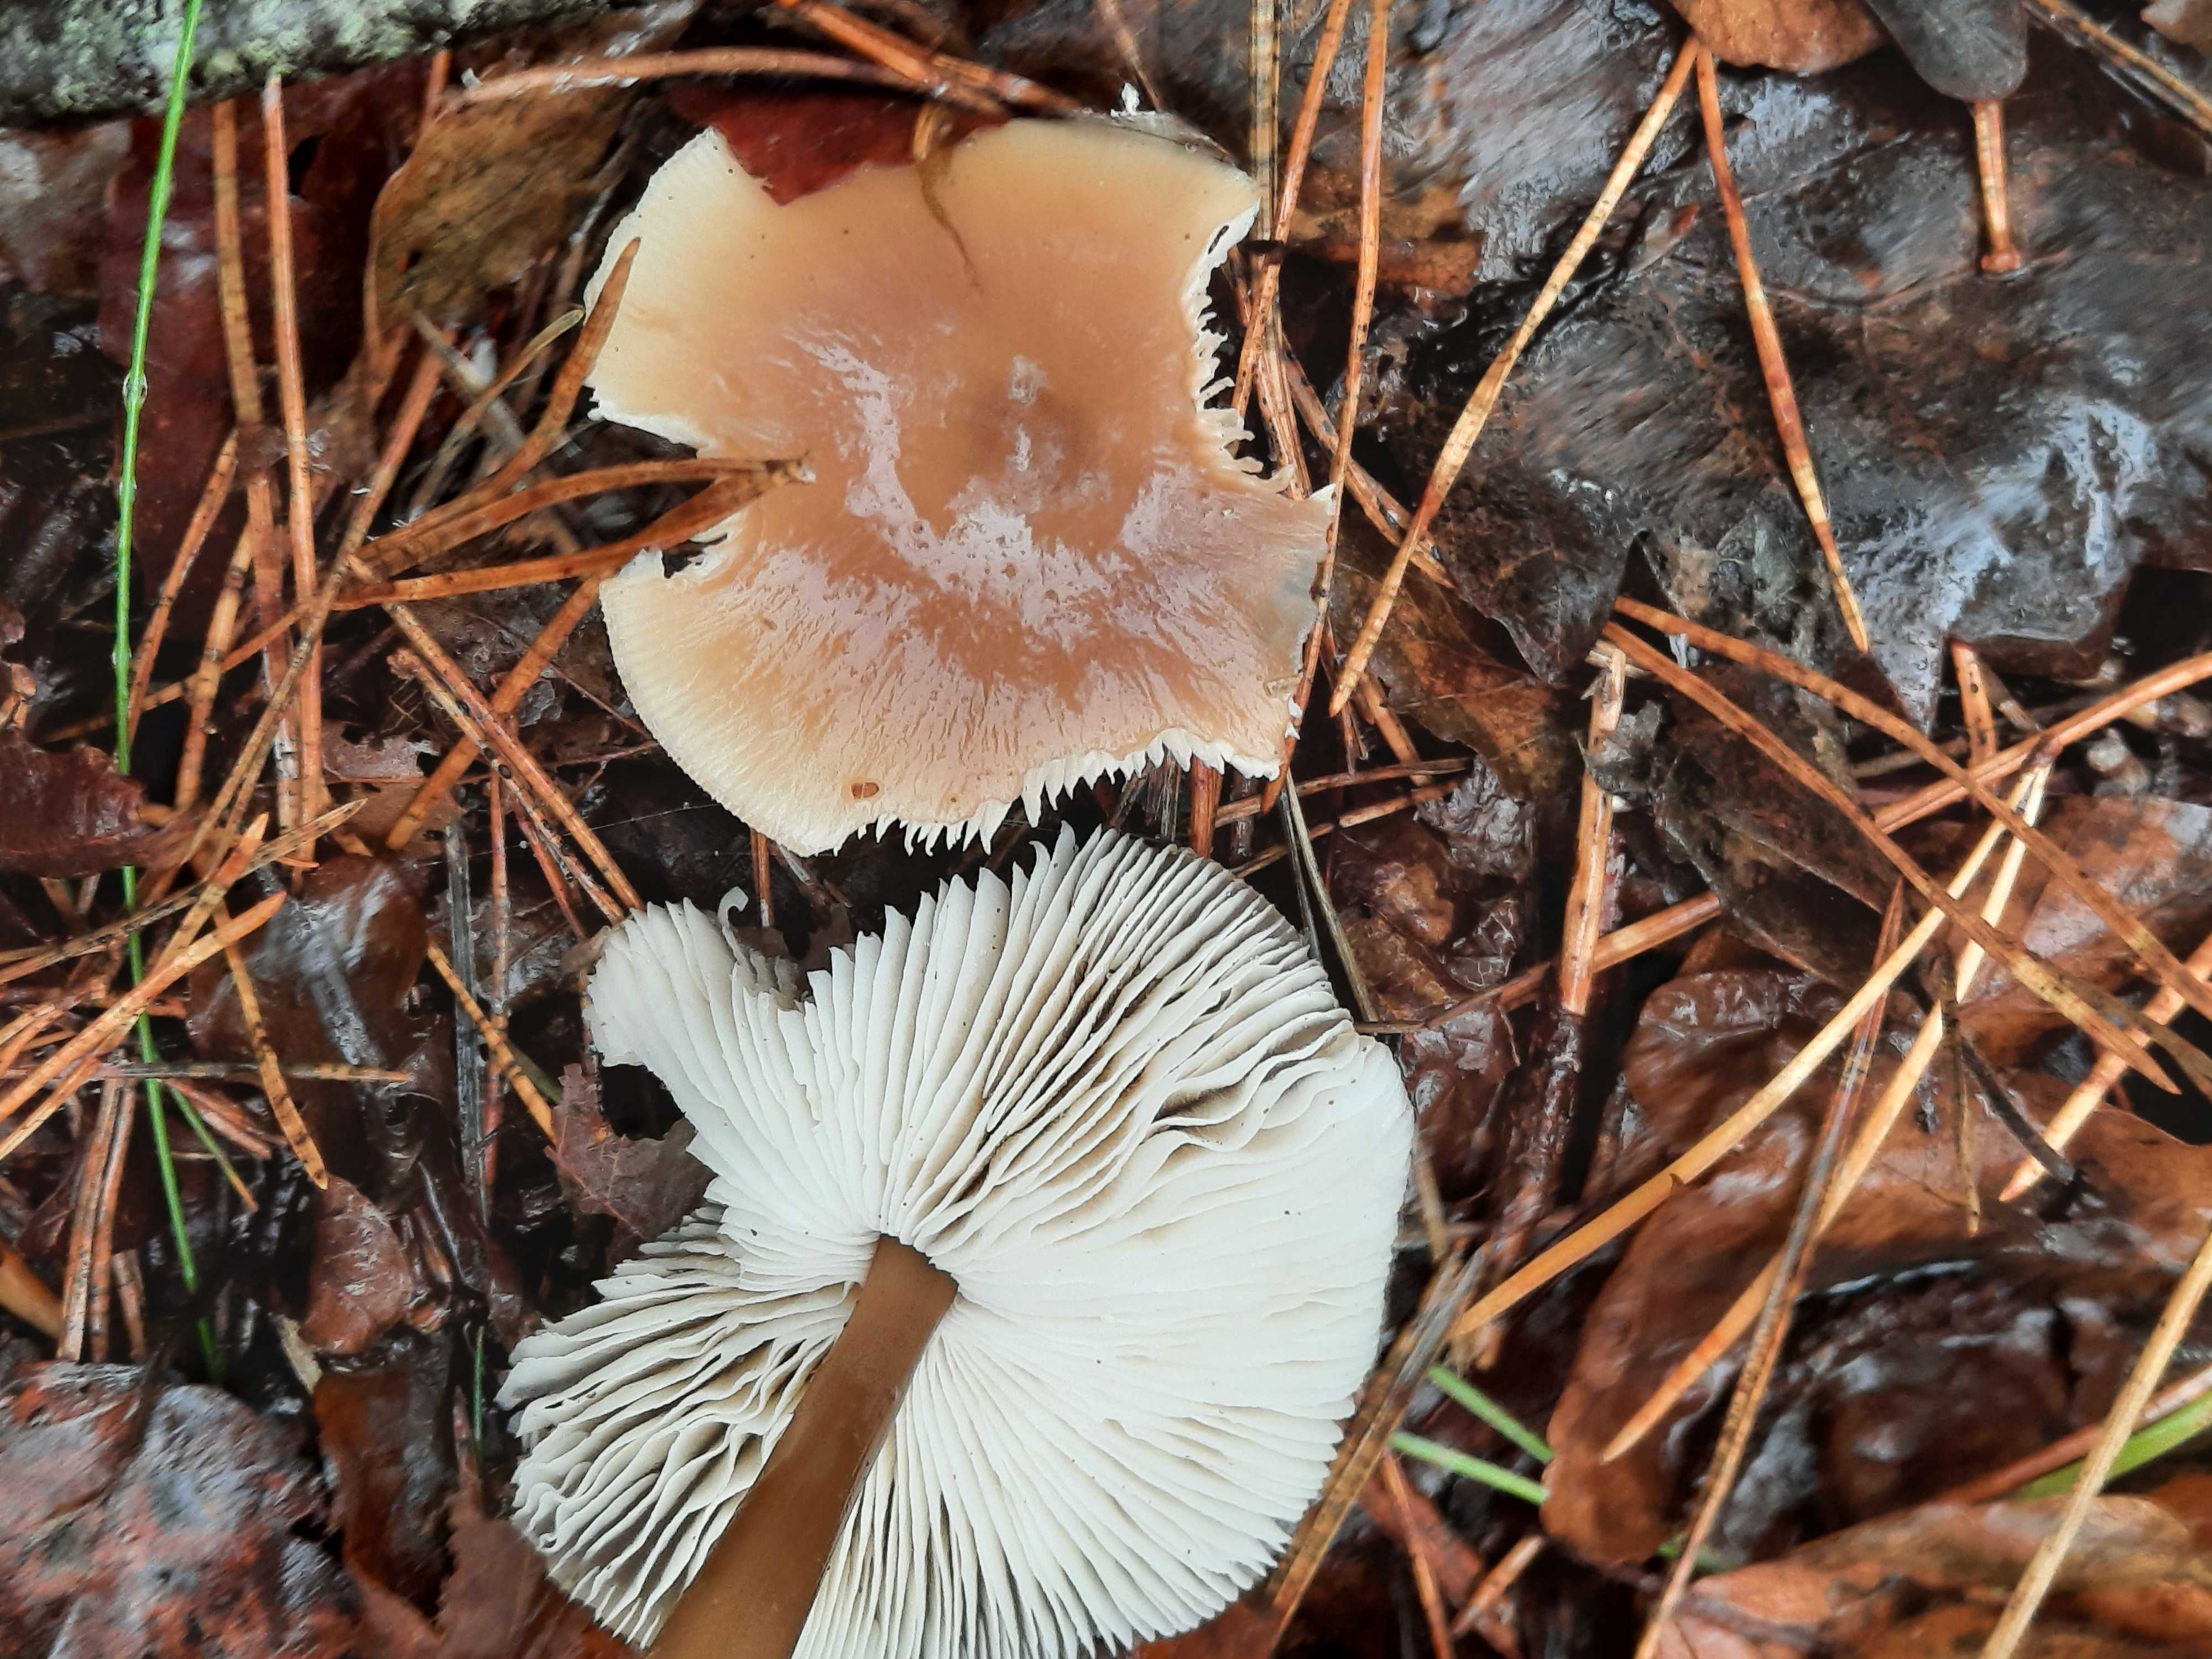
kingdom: Fungi
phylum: Basidiomycota
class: Agaricomycetes
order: Agaricales
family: Omphalotaceae
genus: Rhodocollybia
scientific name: Rhodocollybia asema
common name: horngrå fladhat
